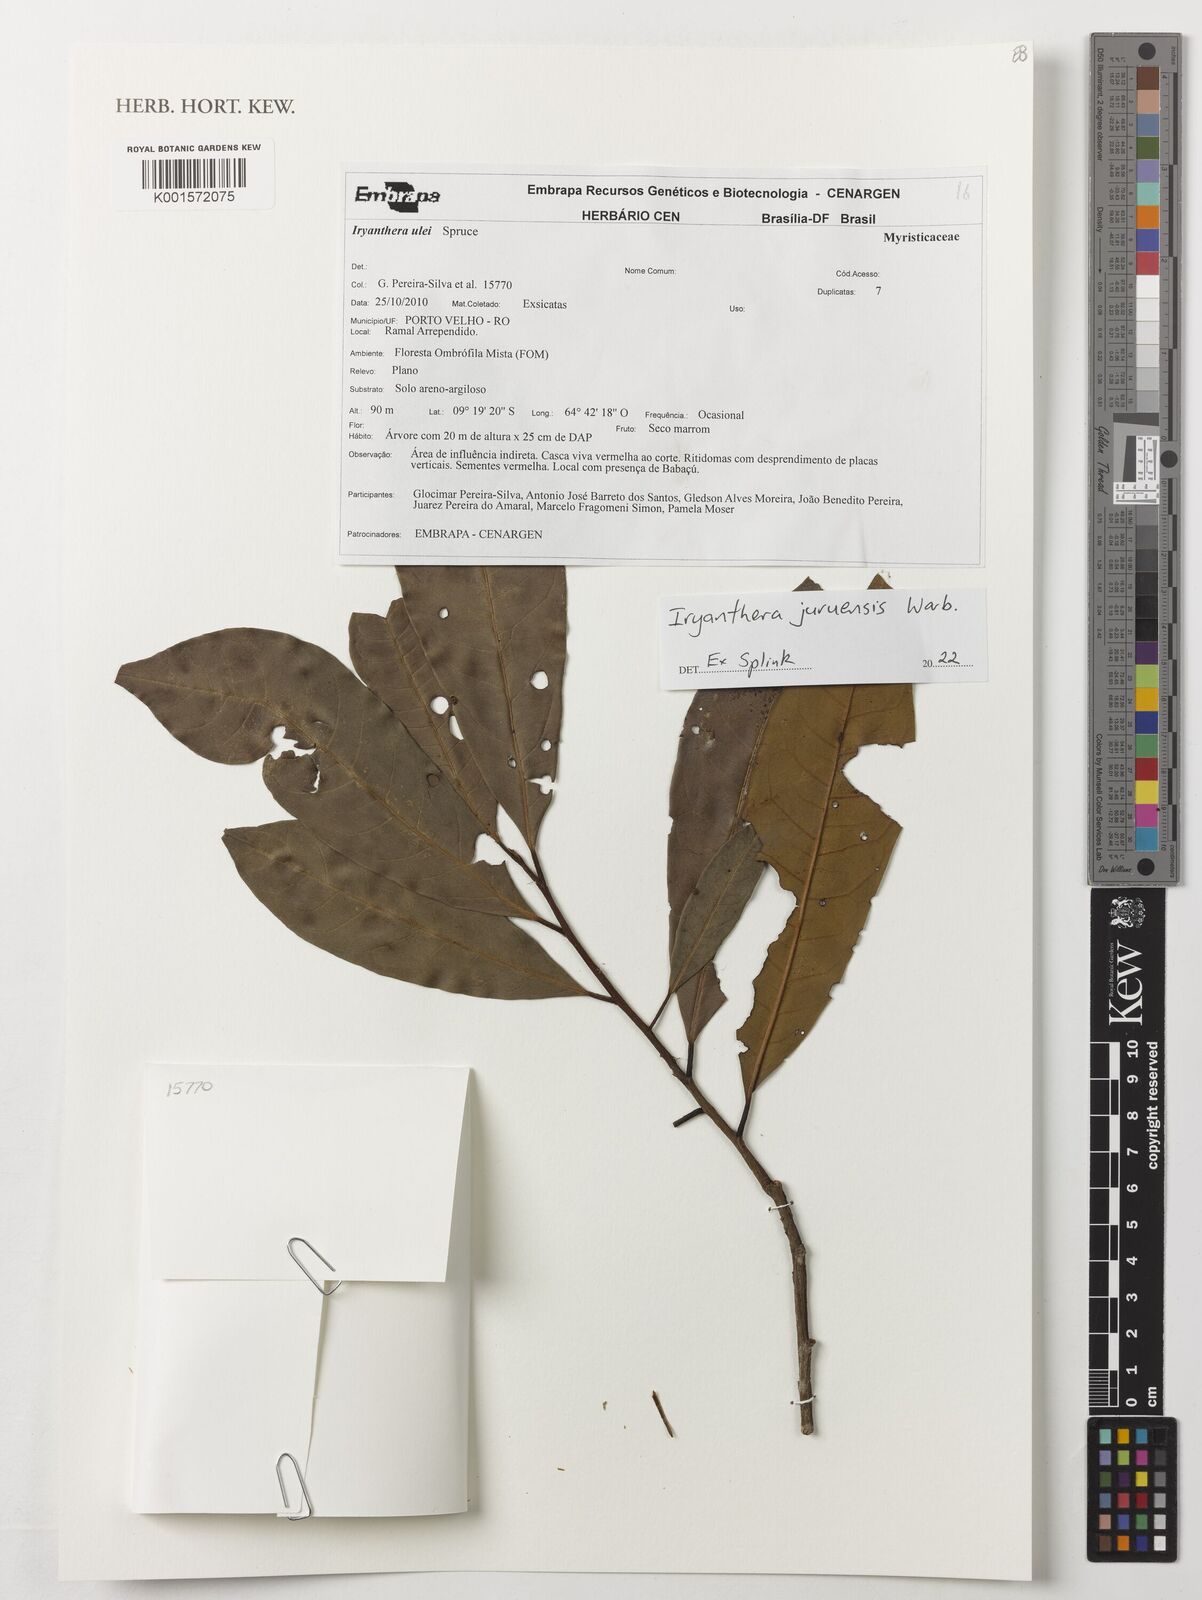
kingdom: Plantae
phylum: Tracheophyta
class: Magnoliopsida
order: Magnoliales
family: Myristicaceae
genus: Iryanthera
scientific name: Iryanthera juruensis
